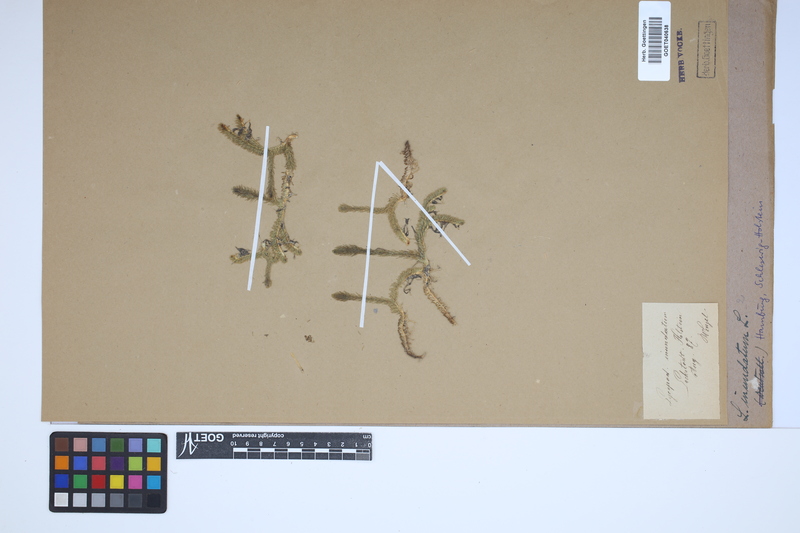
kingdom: Plantae
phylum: Tracheophyta
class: Lycopodiopsida
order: Lycopodiales
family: Lycopodiaceae
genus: Lycopodiella
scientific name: Lycopodiella inundata
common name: Marsh clubmoss
